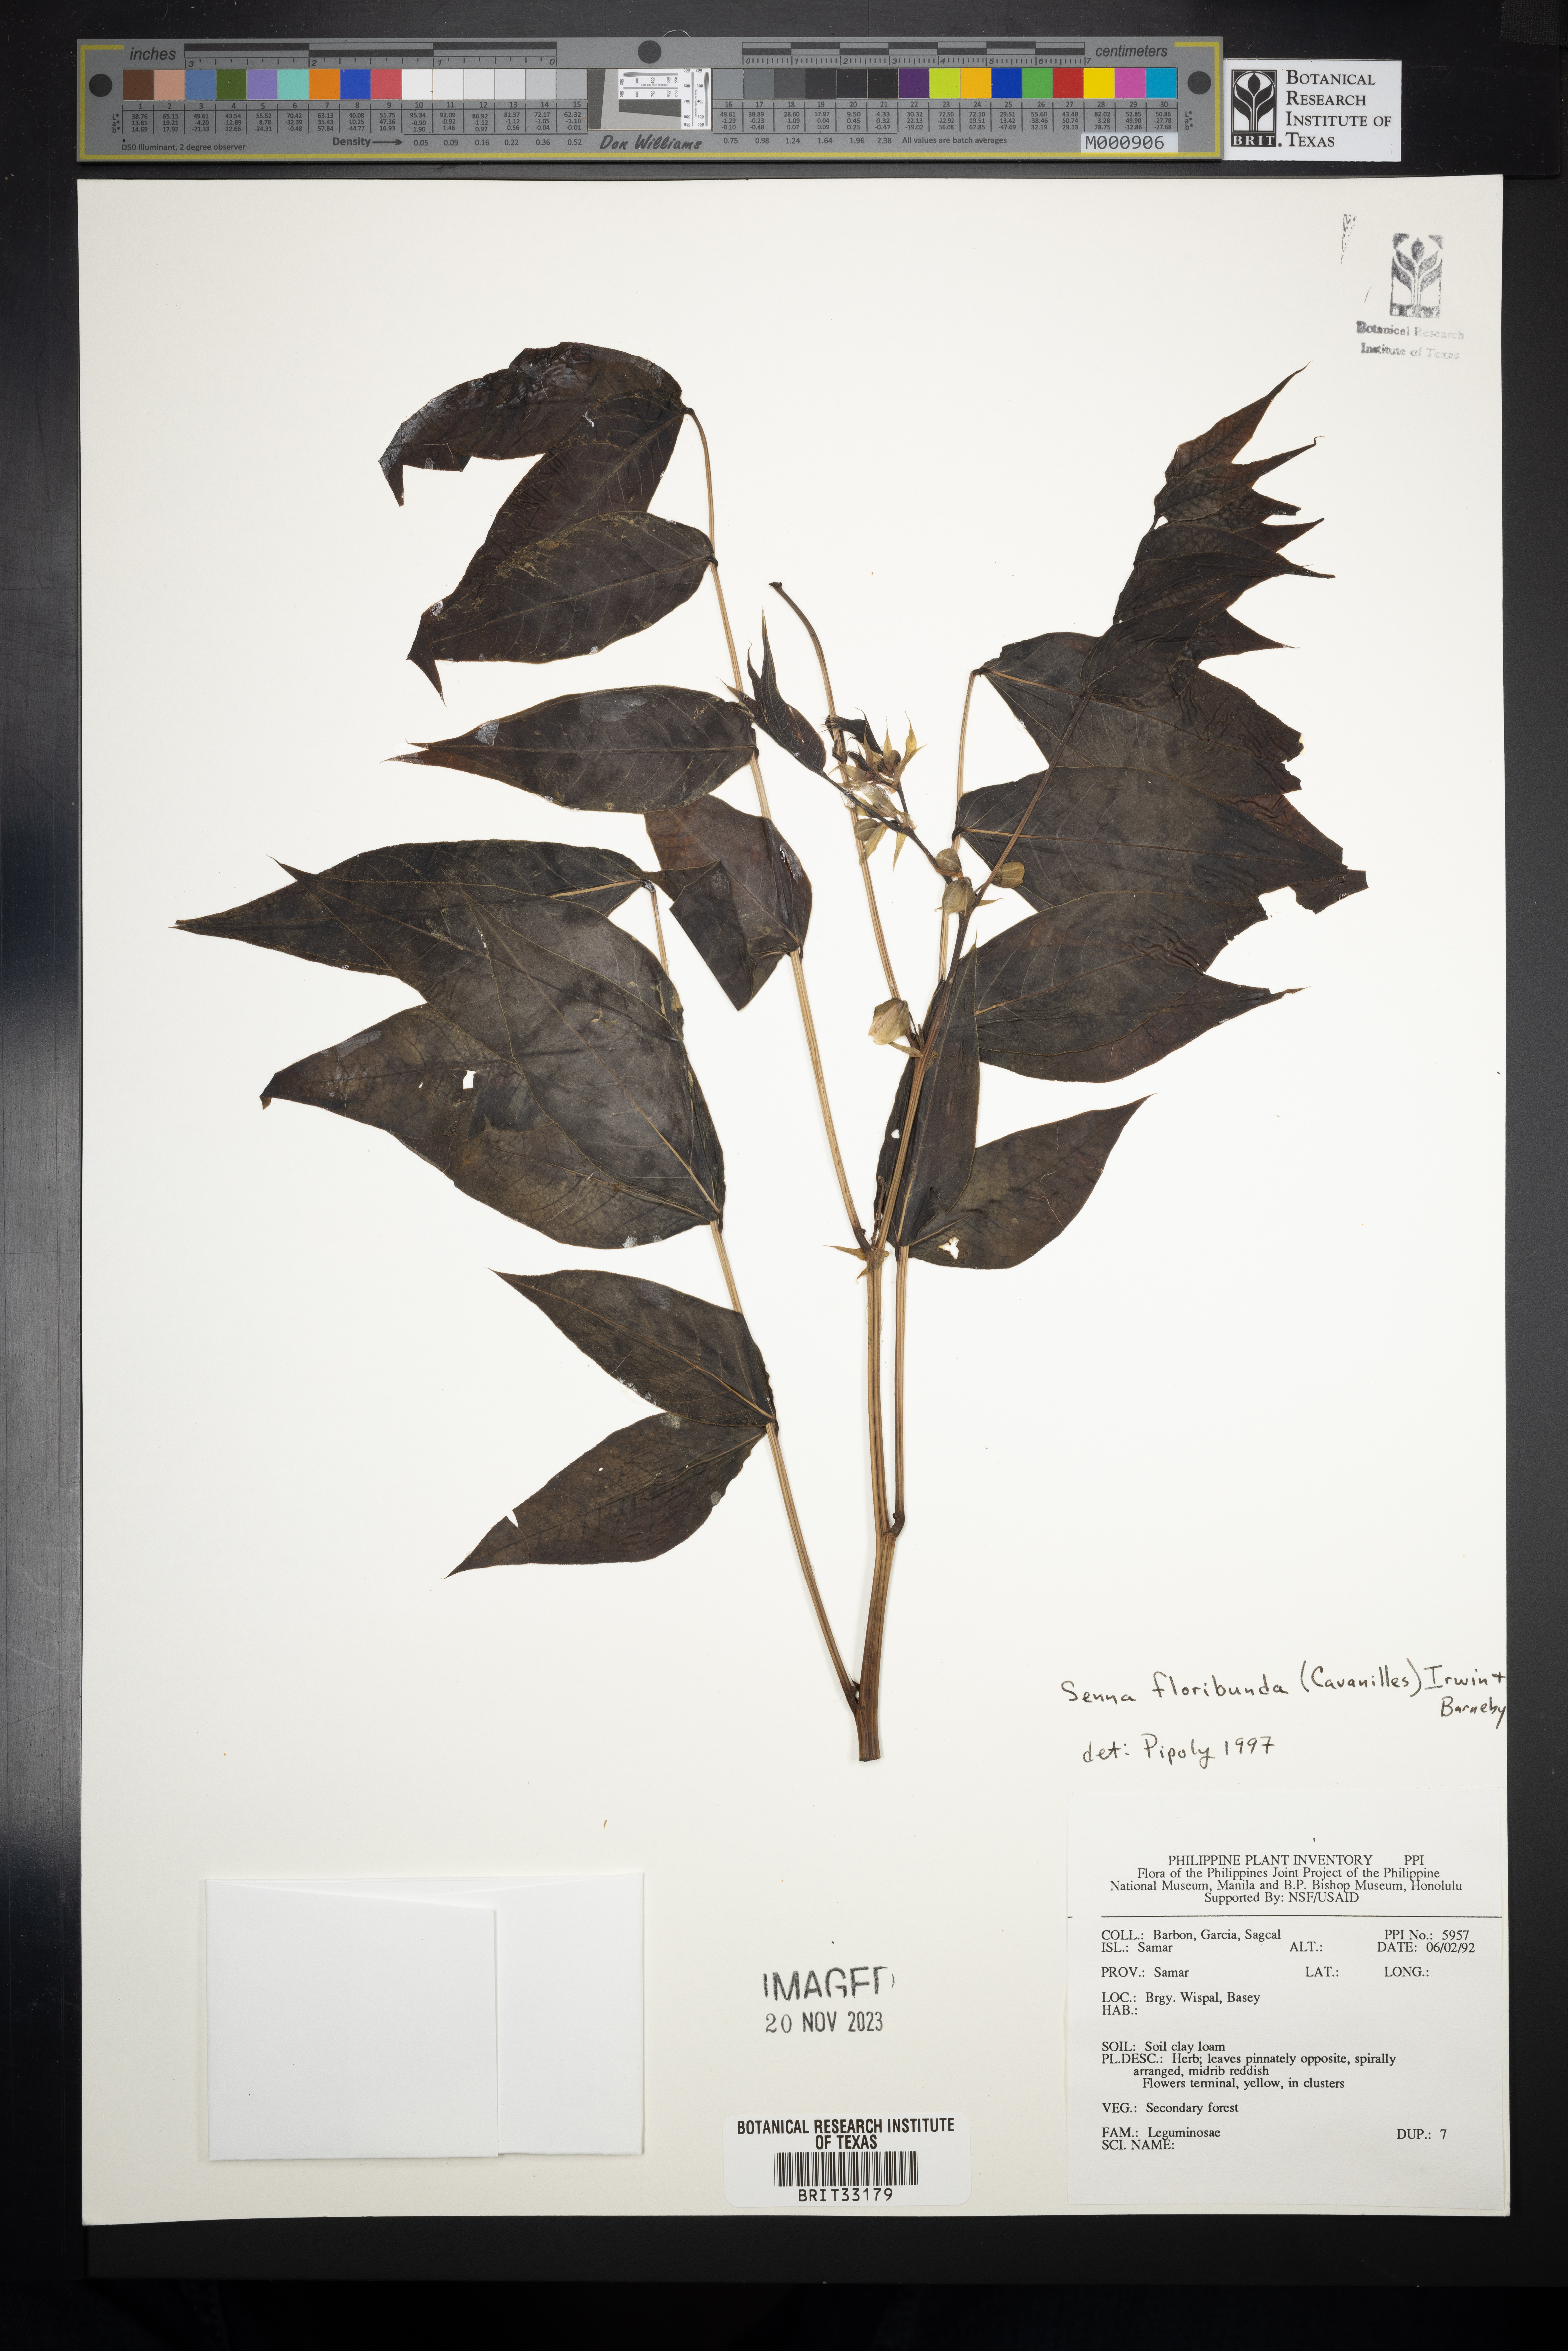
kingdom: Plantae
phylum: Tracheophyta
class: Magnoliopsida
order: Fabales
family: Fabaceae
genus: Senna
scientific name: Senna floribunda
